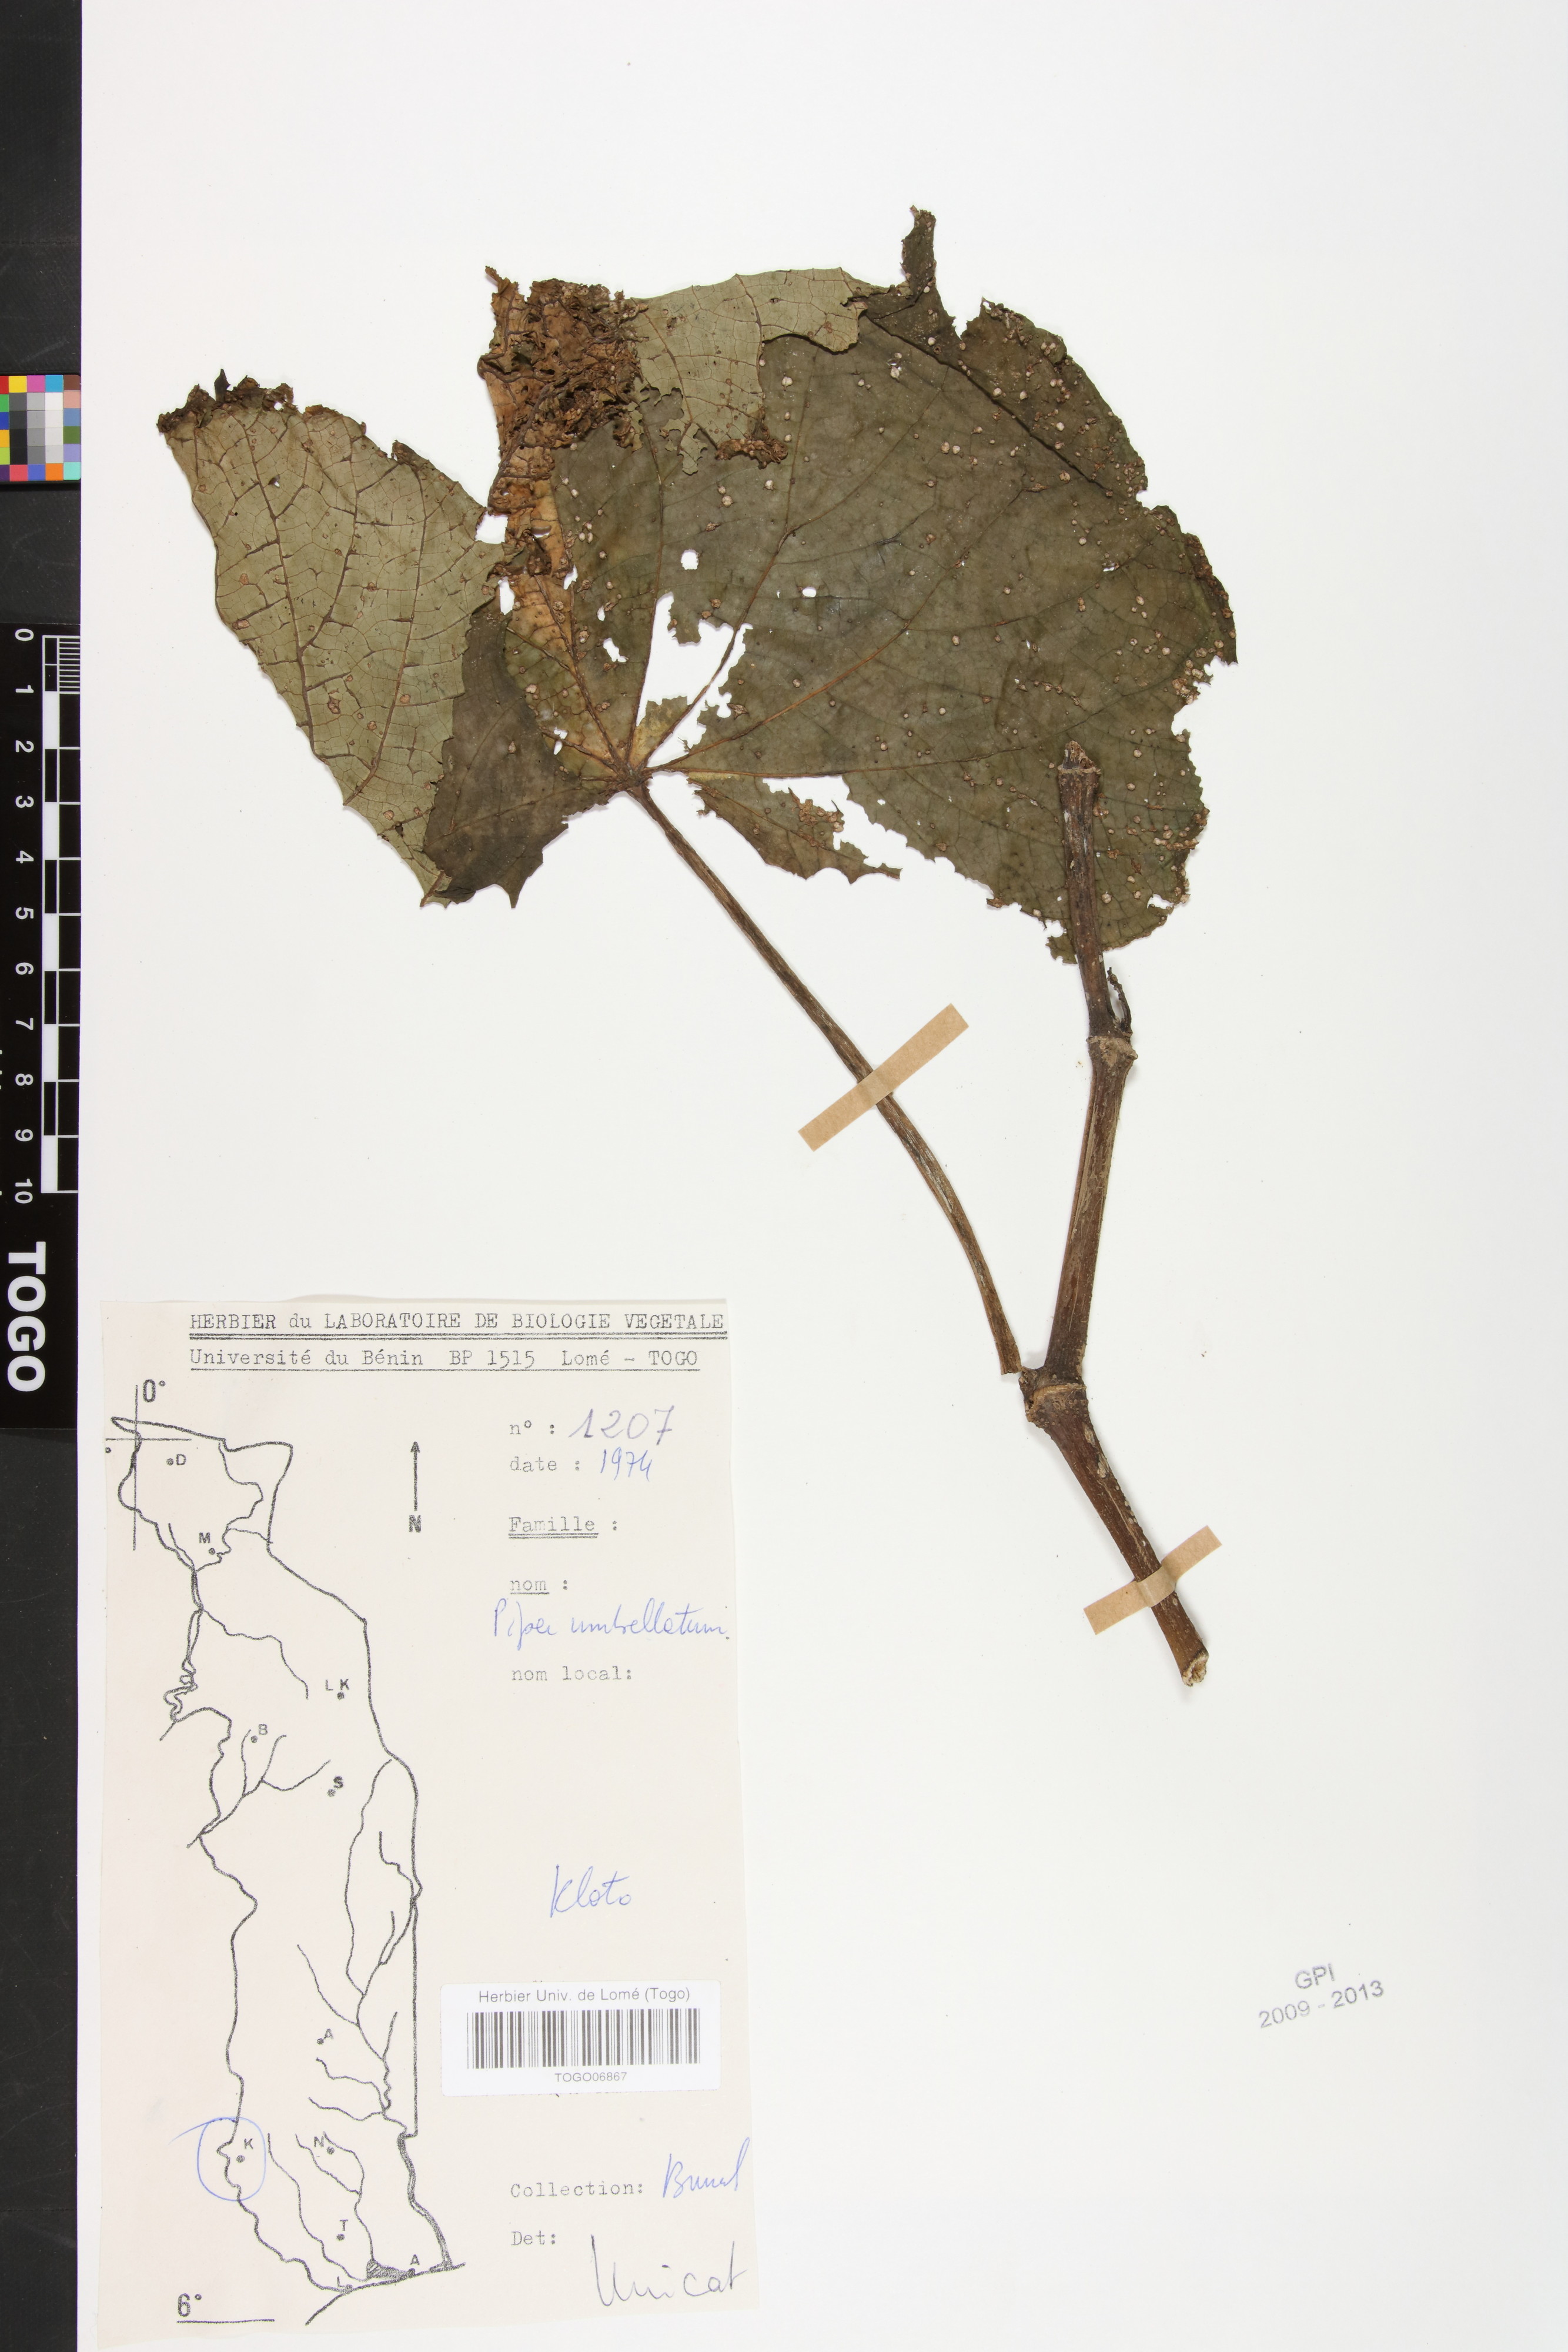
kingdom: Plantae
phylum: Tracheophyta
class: Magnoliopsida
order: Piperales
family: Piperaceae
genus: Piper
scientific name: Piper umbellatum
